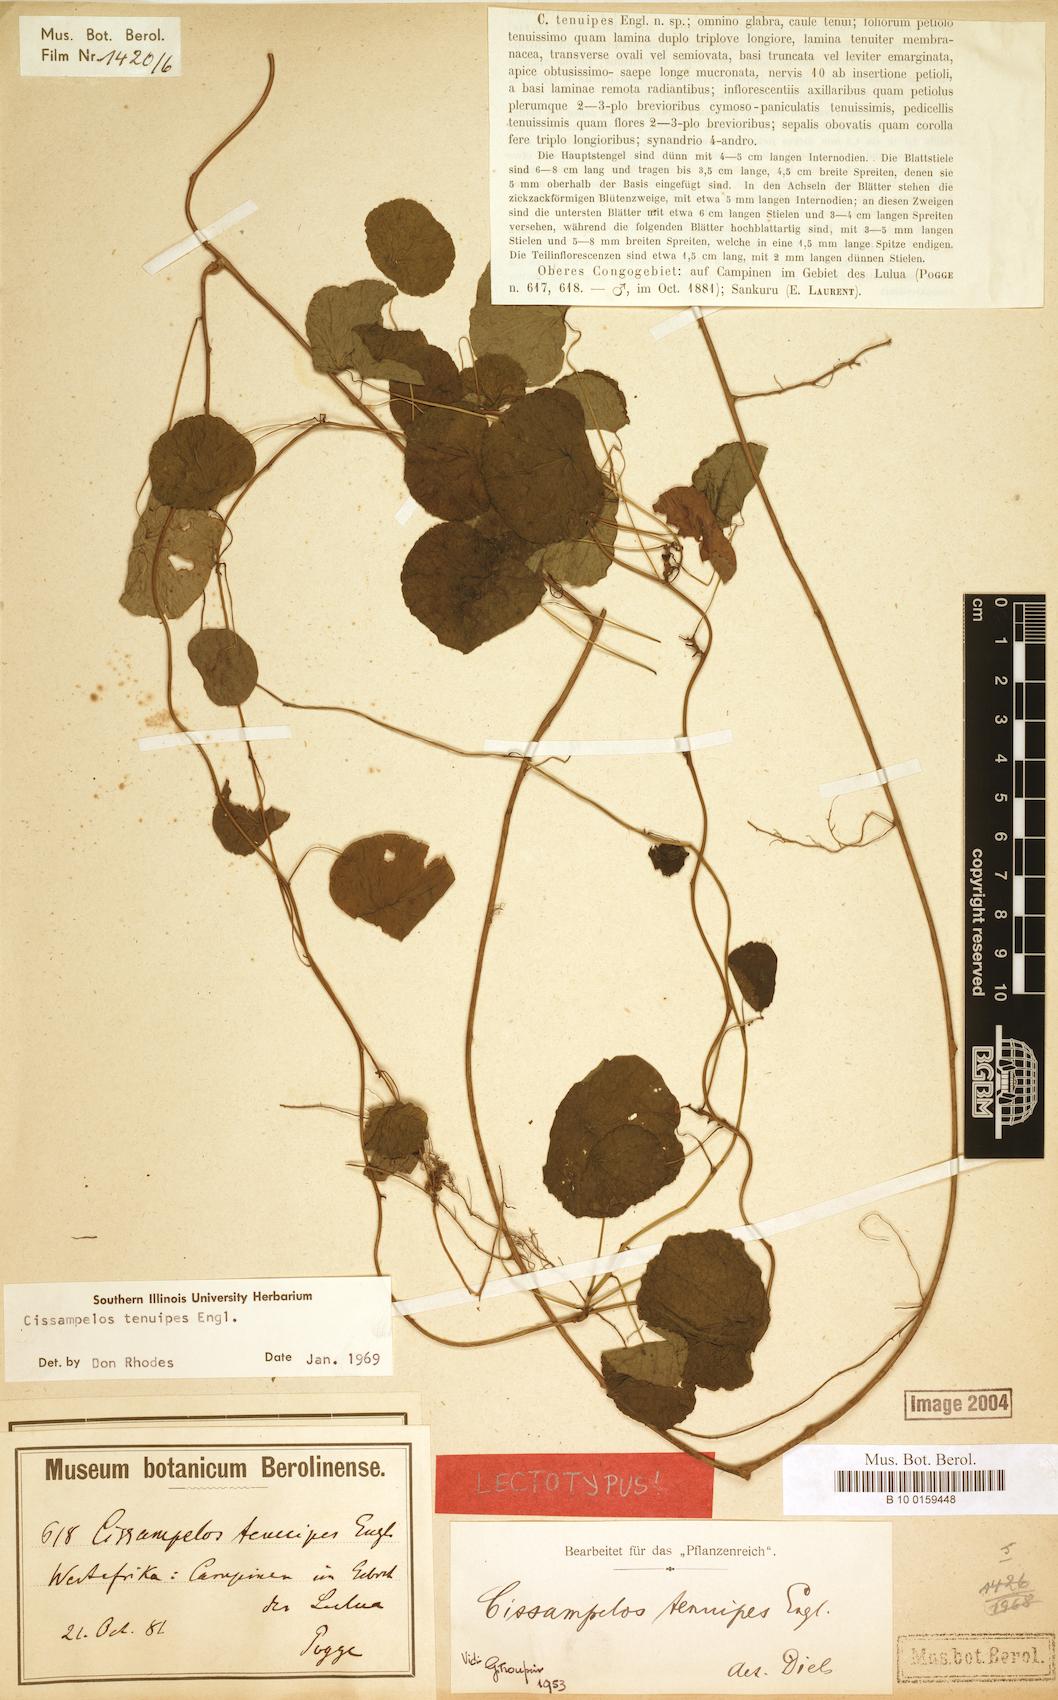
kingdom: Plantae
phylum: Tracheophyta
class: Magnoliopsida
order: Ranunculales
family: Menispermaceae
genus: Cissampelos
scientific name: Cissampelos tenuipes
